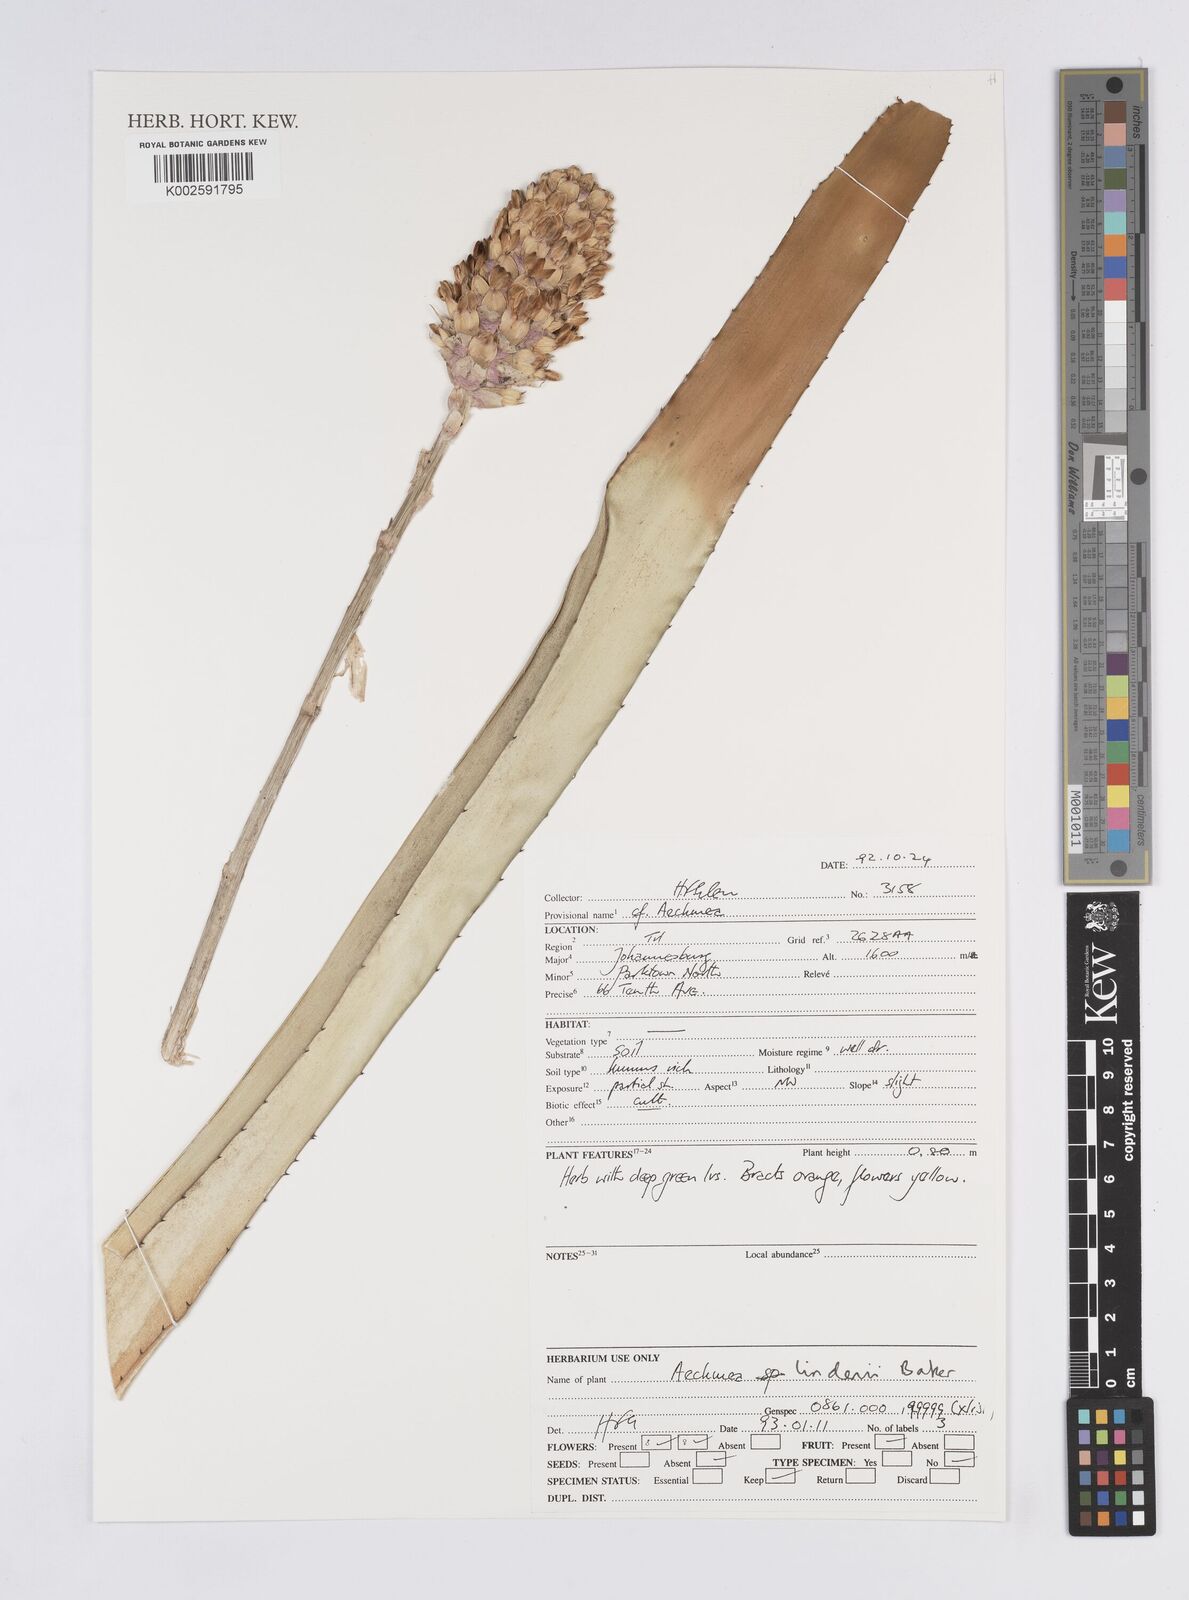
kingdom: Plantae
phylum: Tracheophyta
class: Liliopsida
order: Poales
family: Bromeliaceae
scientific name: Bromeliaceae
